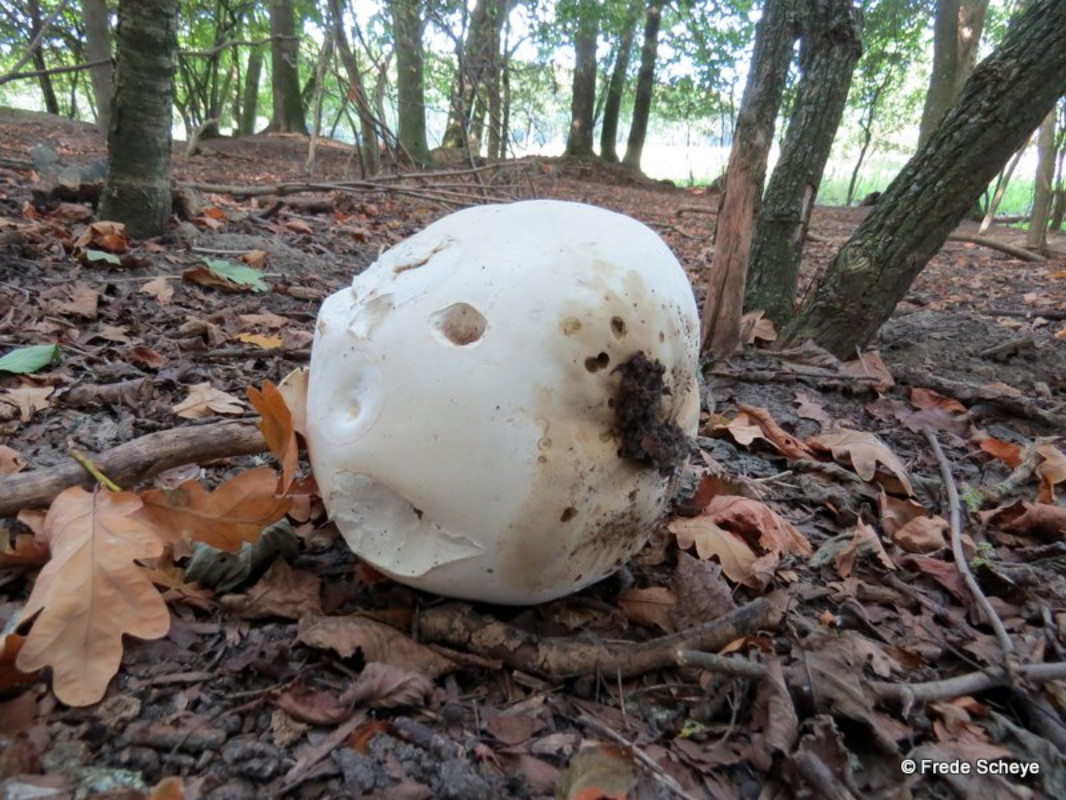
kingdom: Fungi
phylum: Basidiomycota
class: Agaricomycetes
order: Agaricales
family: Lycoperdaceae
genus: Calvatia
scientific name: Calvatia gigantea
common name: kæmpestøvbold
